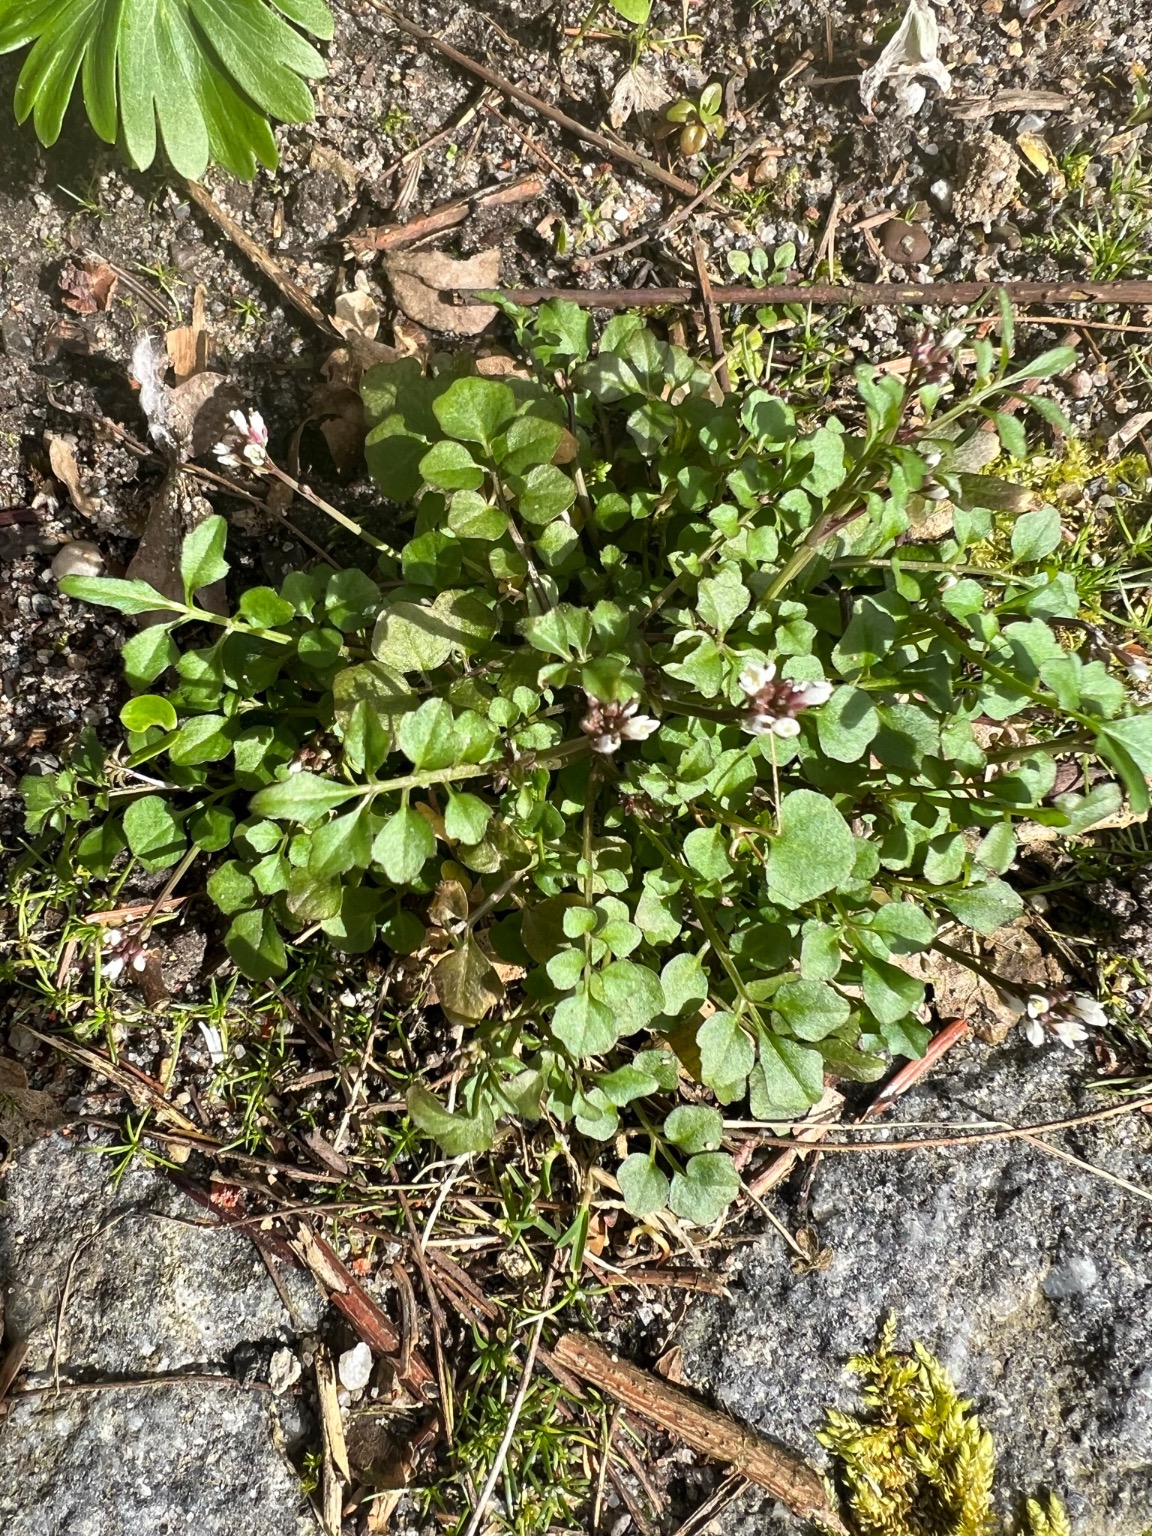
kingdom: Plantae
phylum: Tracheophyta
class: Magnoliopsida
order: Brassicales
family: Brassicaceae
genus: Cardamine
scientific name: Cardamine hirsuta
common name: Roset-springklap
